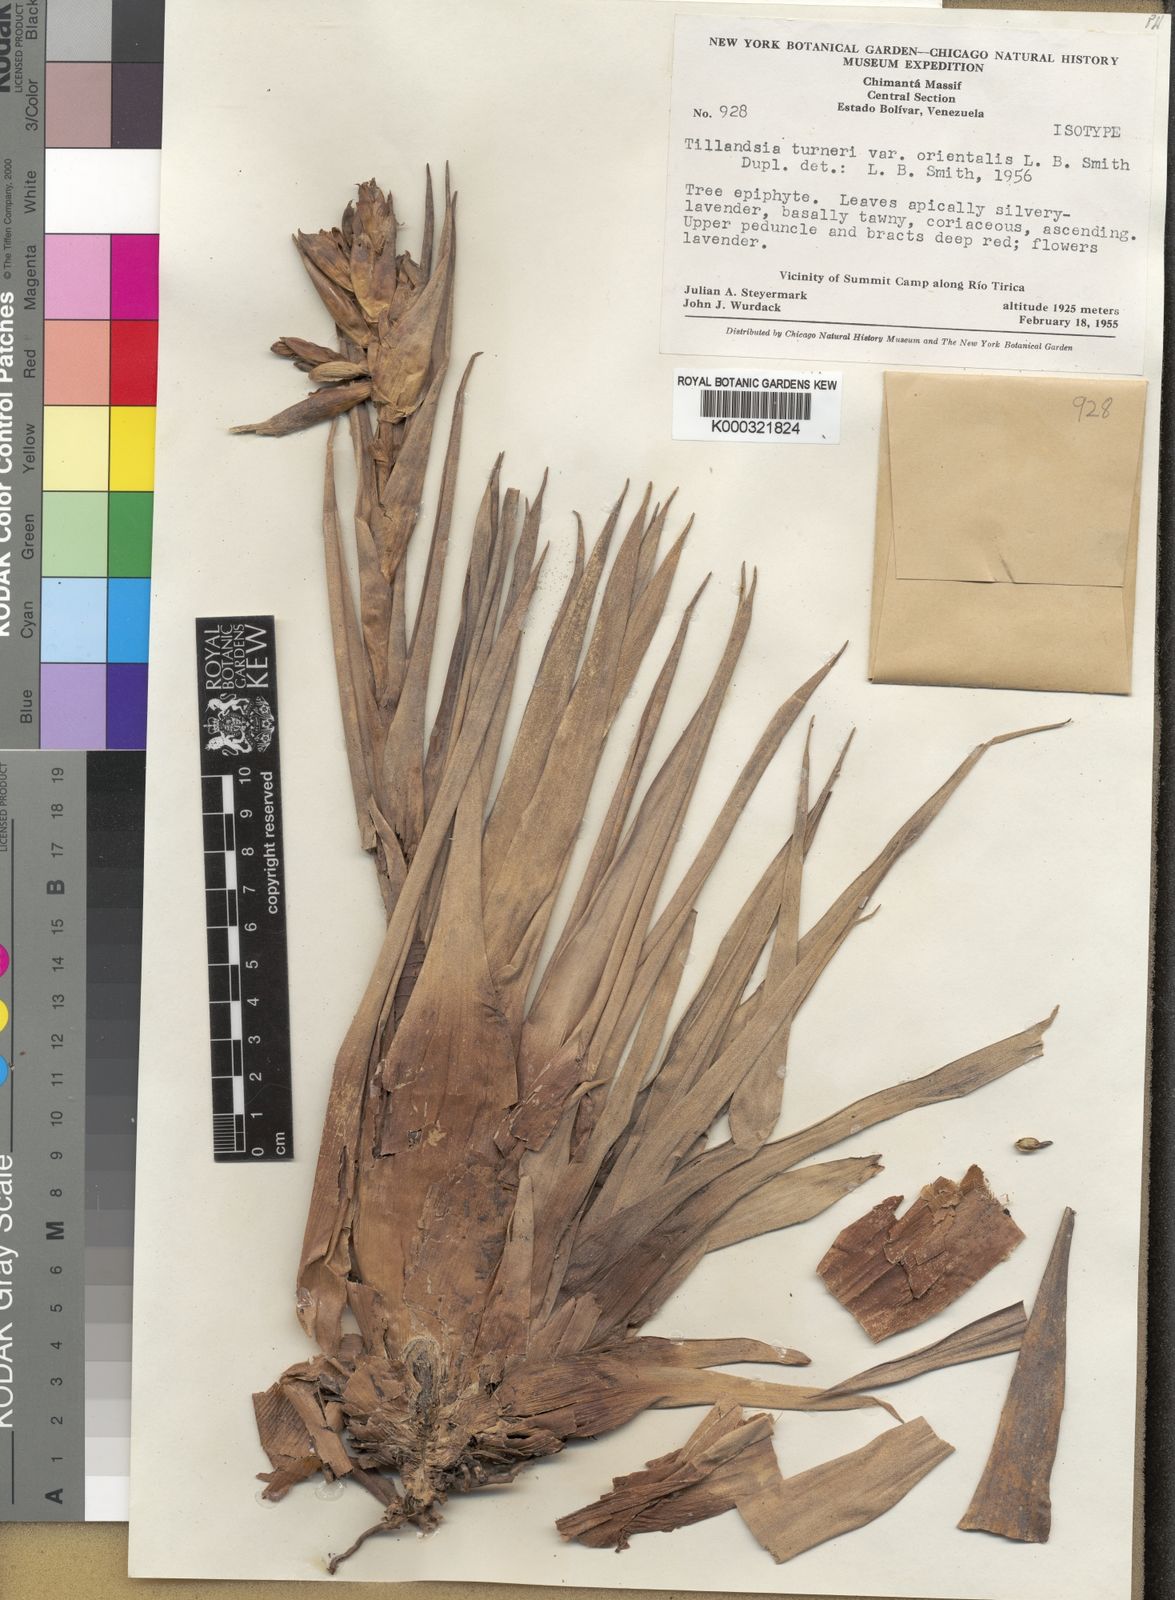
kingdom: Plantae
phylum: Tracheophyta
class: Liliopsida
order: Poales
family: Bromeliaceae
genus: Tillandsia
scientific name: Tillandsia turneri
